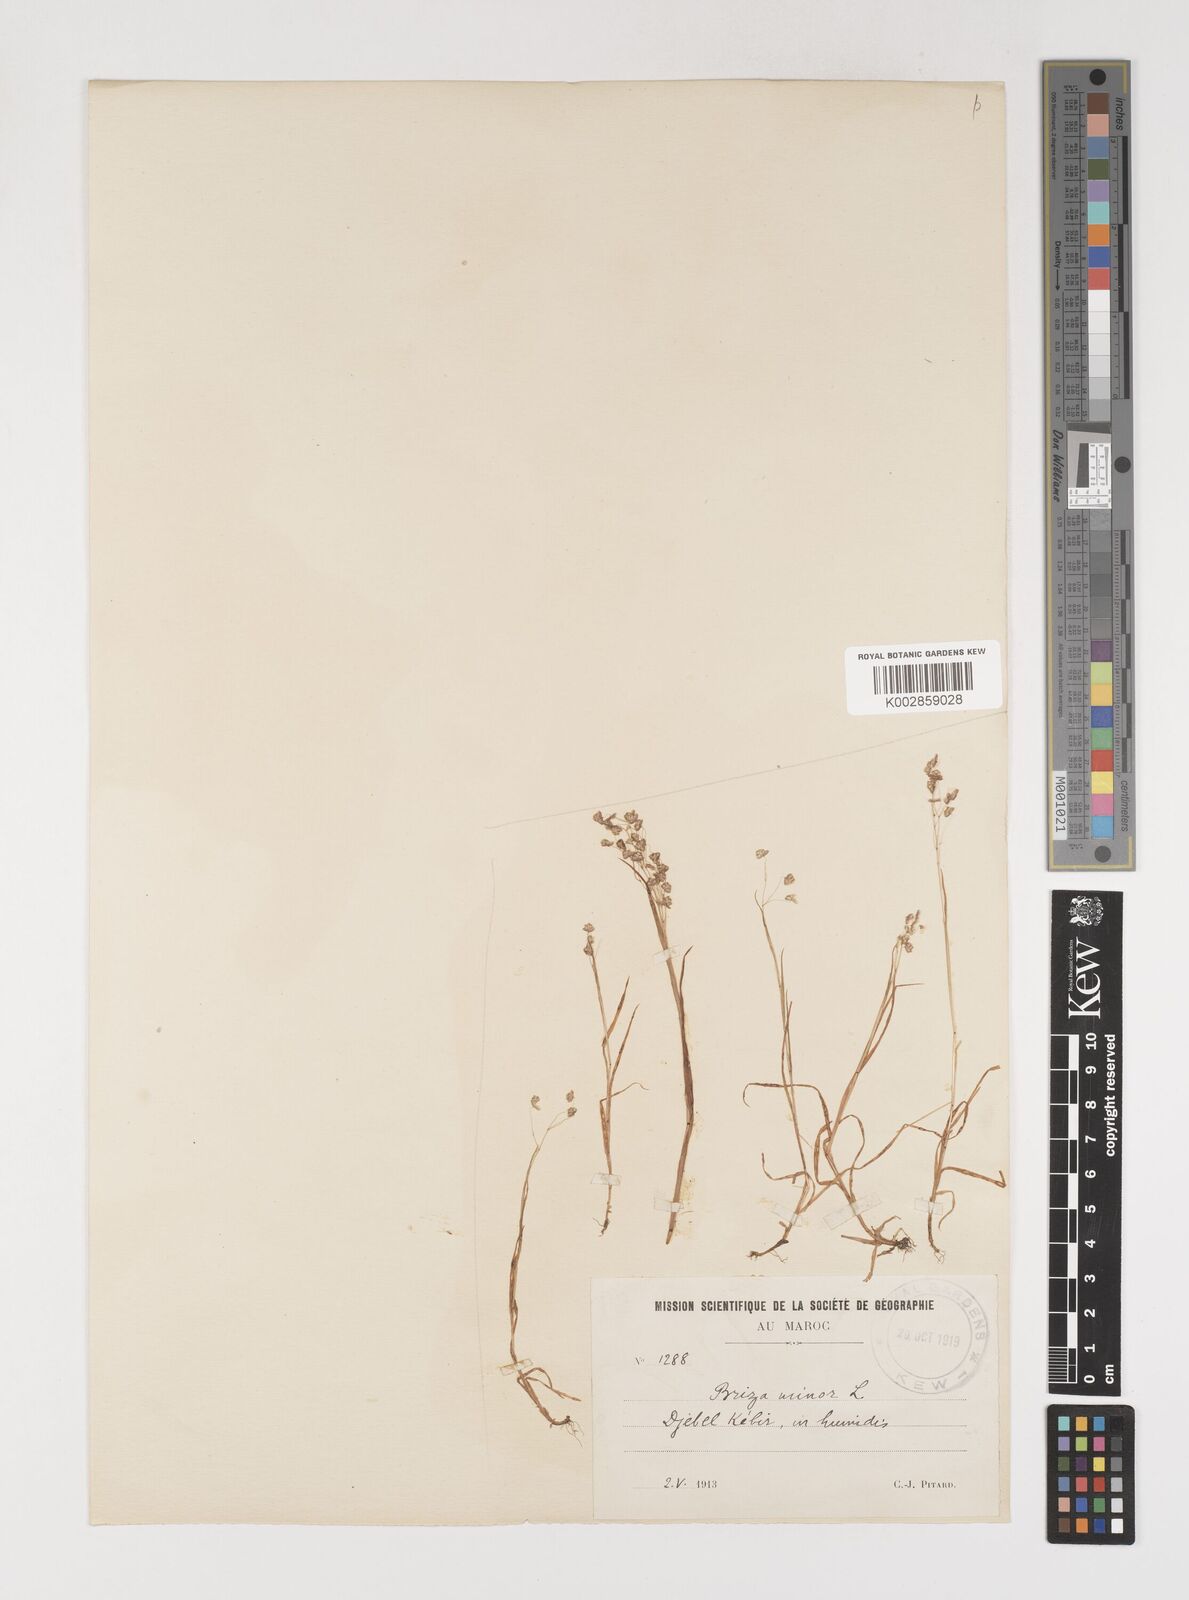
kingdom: Plantae
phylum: Tracheophyta
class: Liliopsida
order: Poales
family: Poaceae
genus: Briza
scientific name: Briza minor
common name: Lesser quaking-grass
